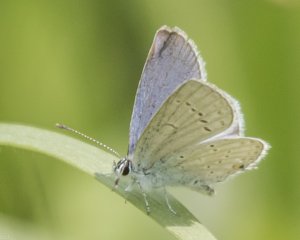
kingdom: Animalia
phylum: Arthropoda
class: Insecta
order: Lepidoptera
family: Lycaenidae
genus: Elkalyce
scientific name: Elkalyce amyntula
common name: Western Tailed-Blue
